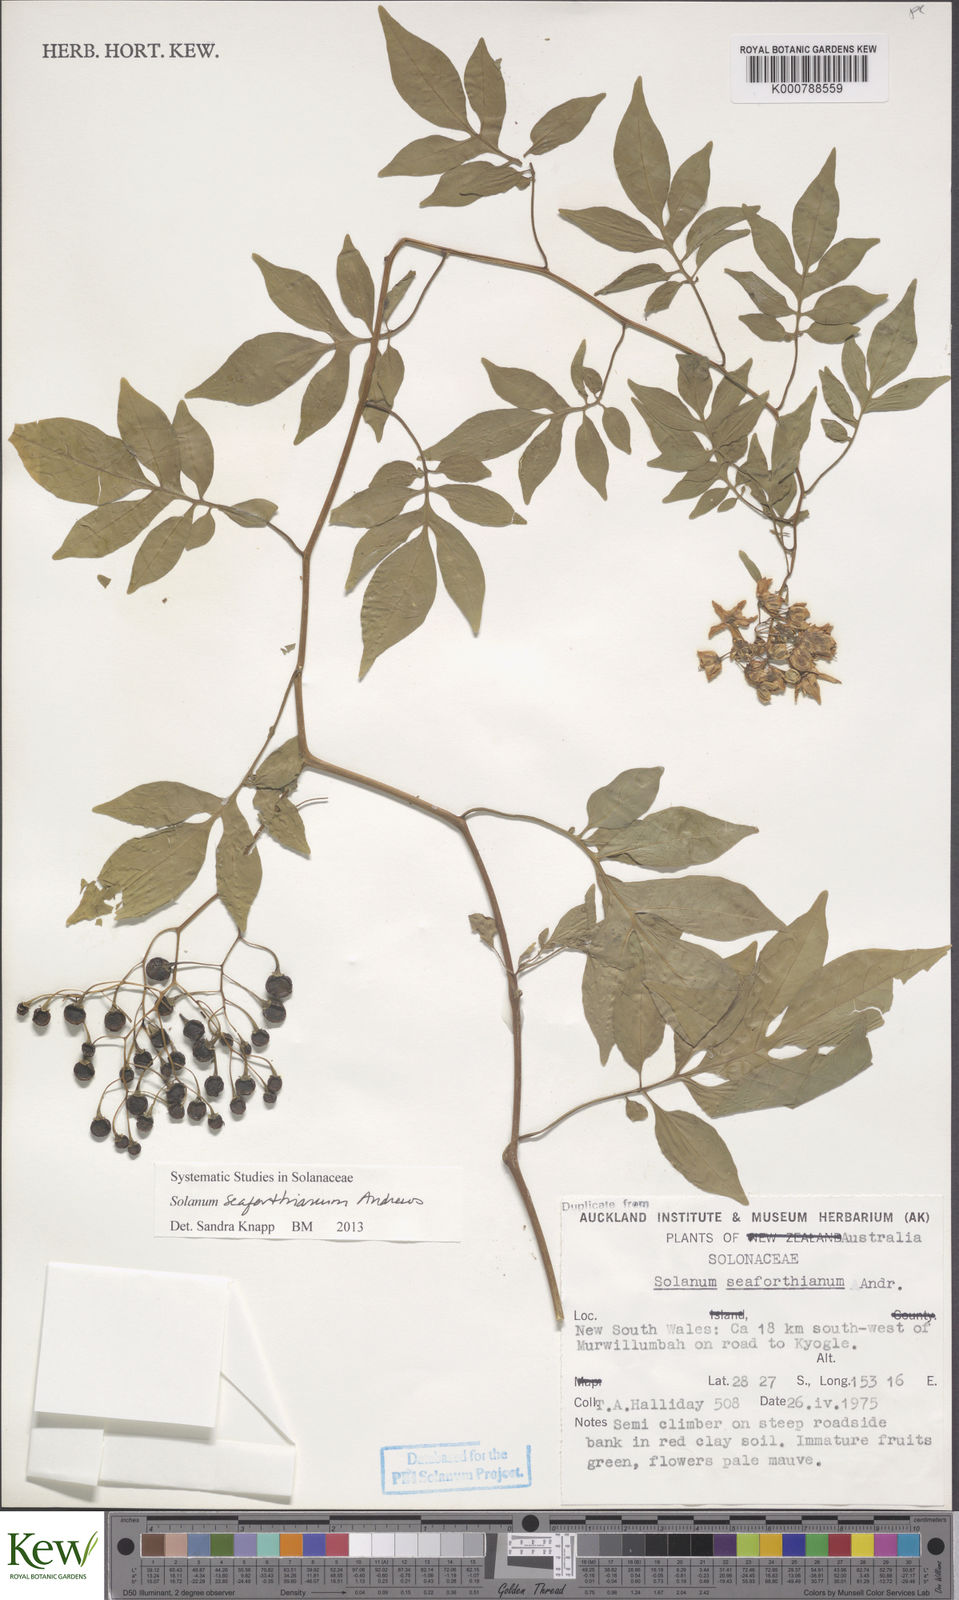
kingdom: Plantae
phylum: Tracheophyta
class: Magnoliopsida
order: Solanales
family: Solanaceae
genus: Solanum
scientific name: Solanum seaforthianum
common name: Brazilian nightshade
